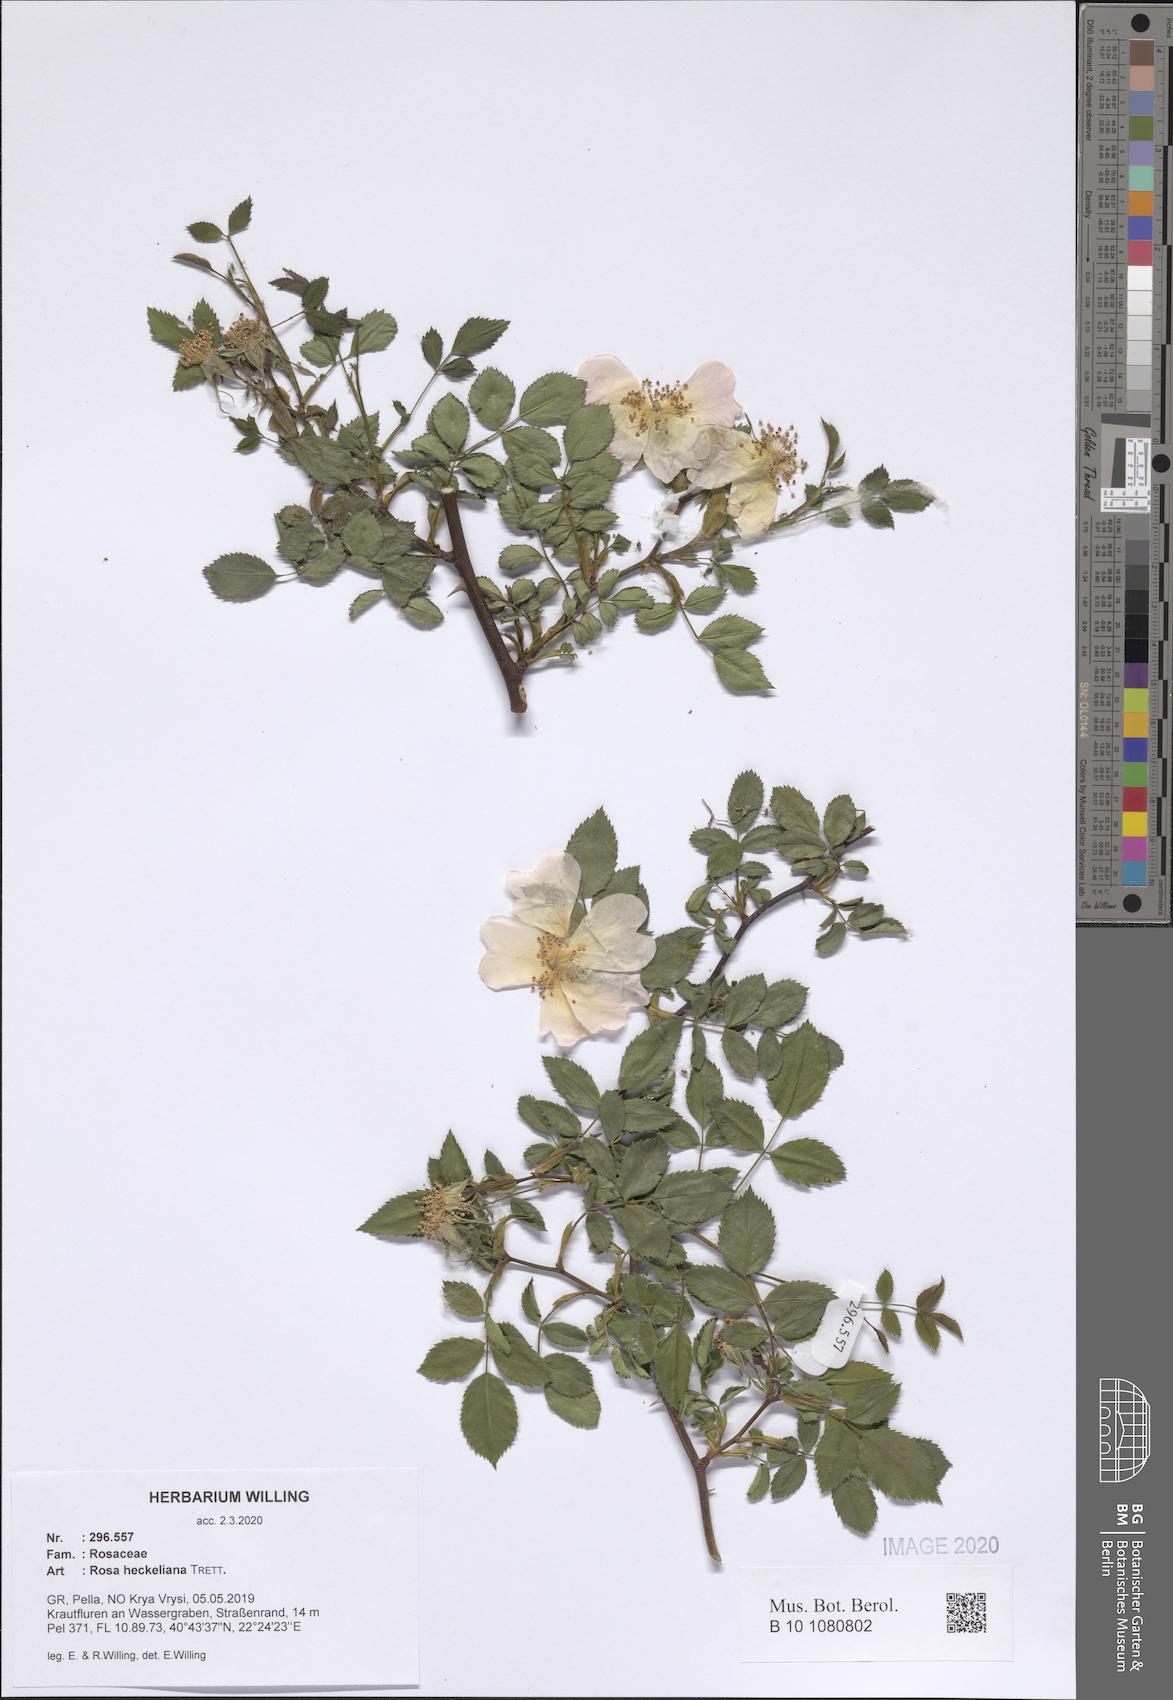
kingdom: Plantae
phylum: Tracheophyta
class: Magnoliopsida
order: Rosales
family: Rosaceae
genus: Rosa
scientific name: Rosa heckeliana
